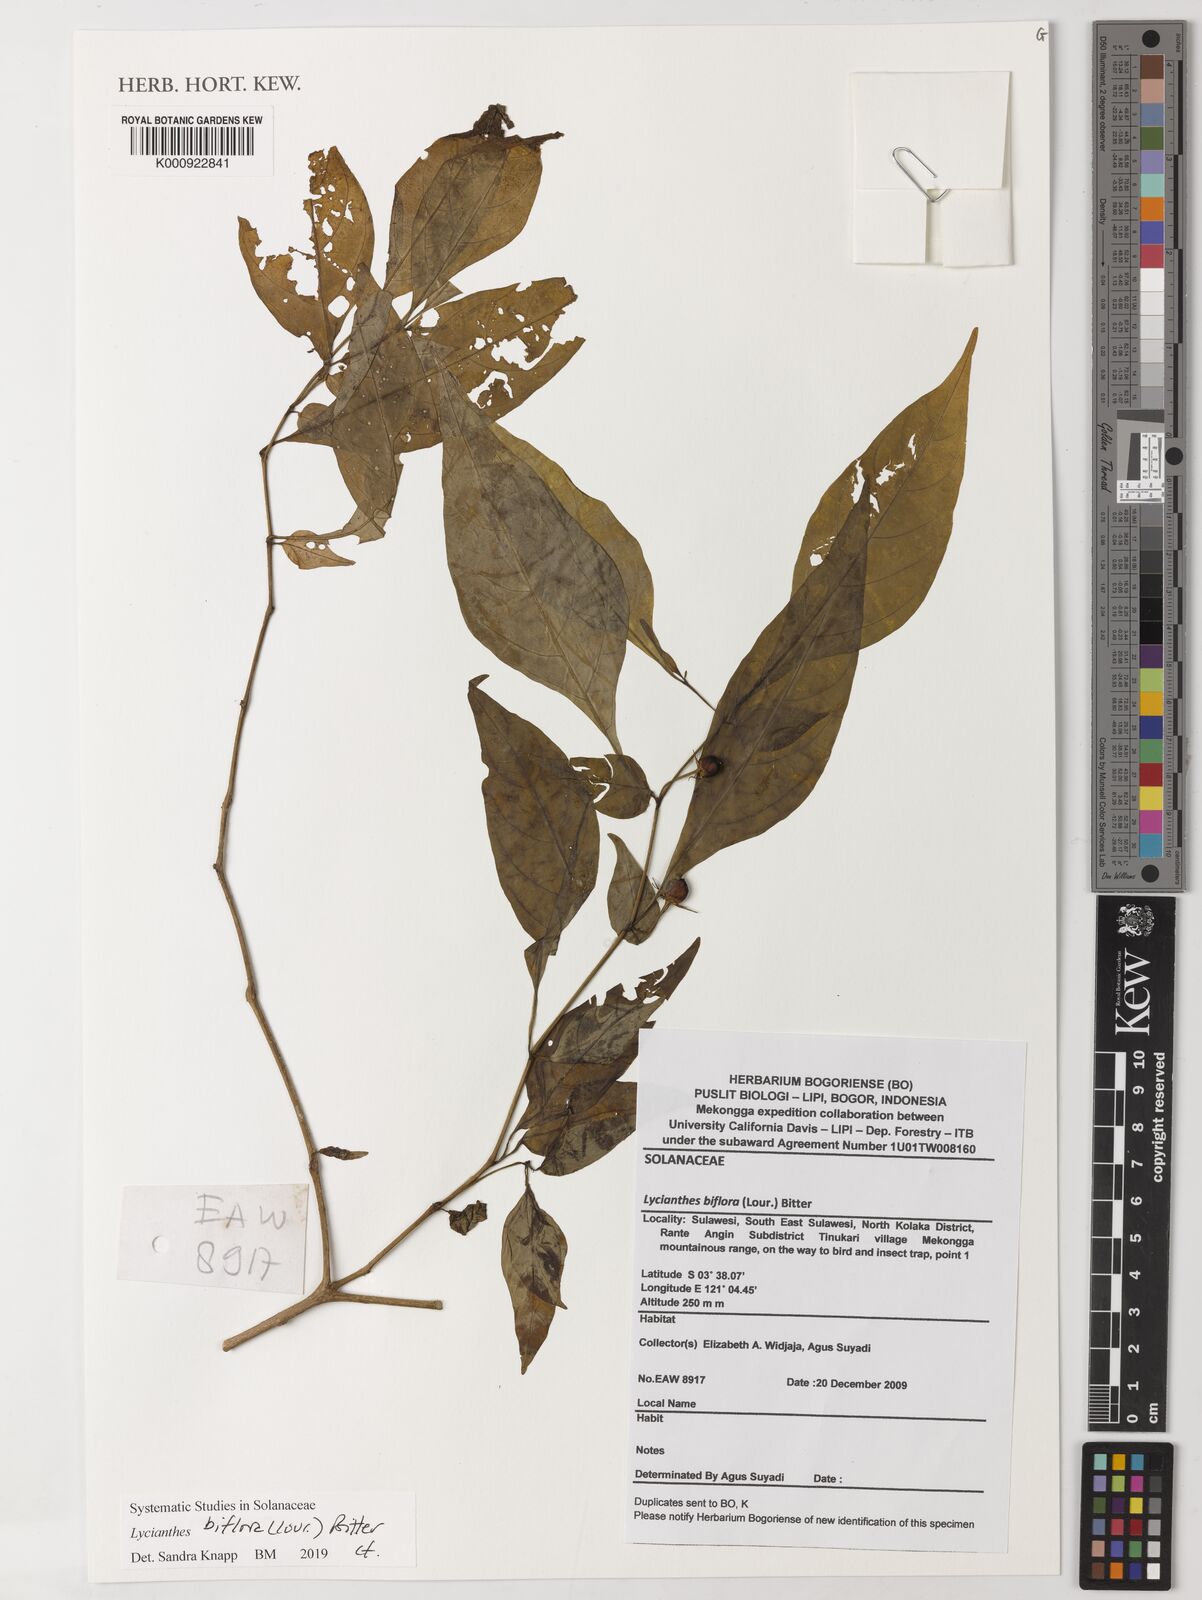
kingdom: Plantae
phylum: Tracheophyta
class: Magnoliopsida
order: Solanales
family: Solanaceae
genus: Lycianthes
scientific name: Lycianthes biflora
